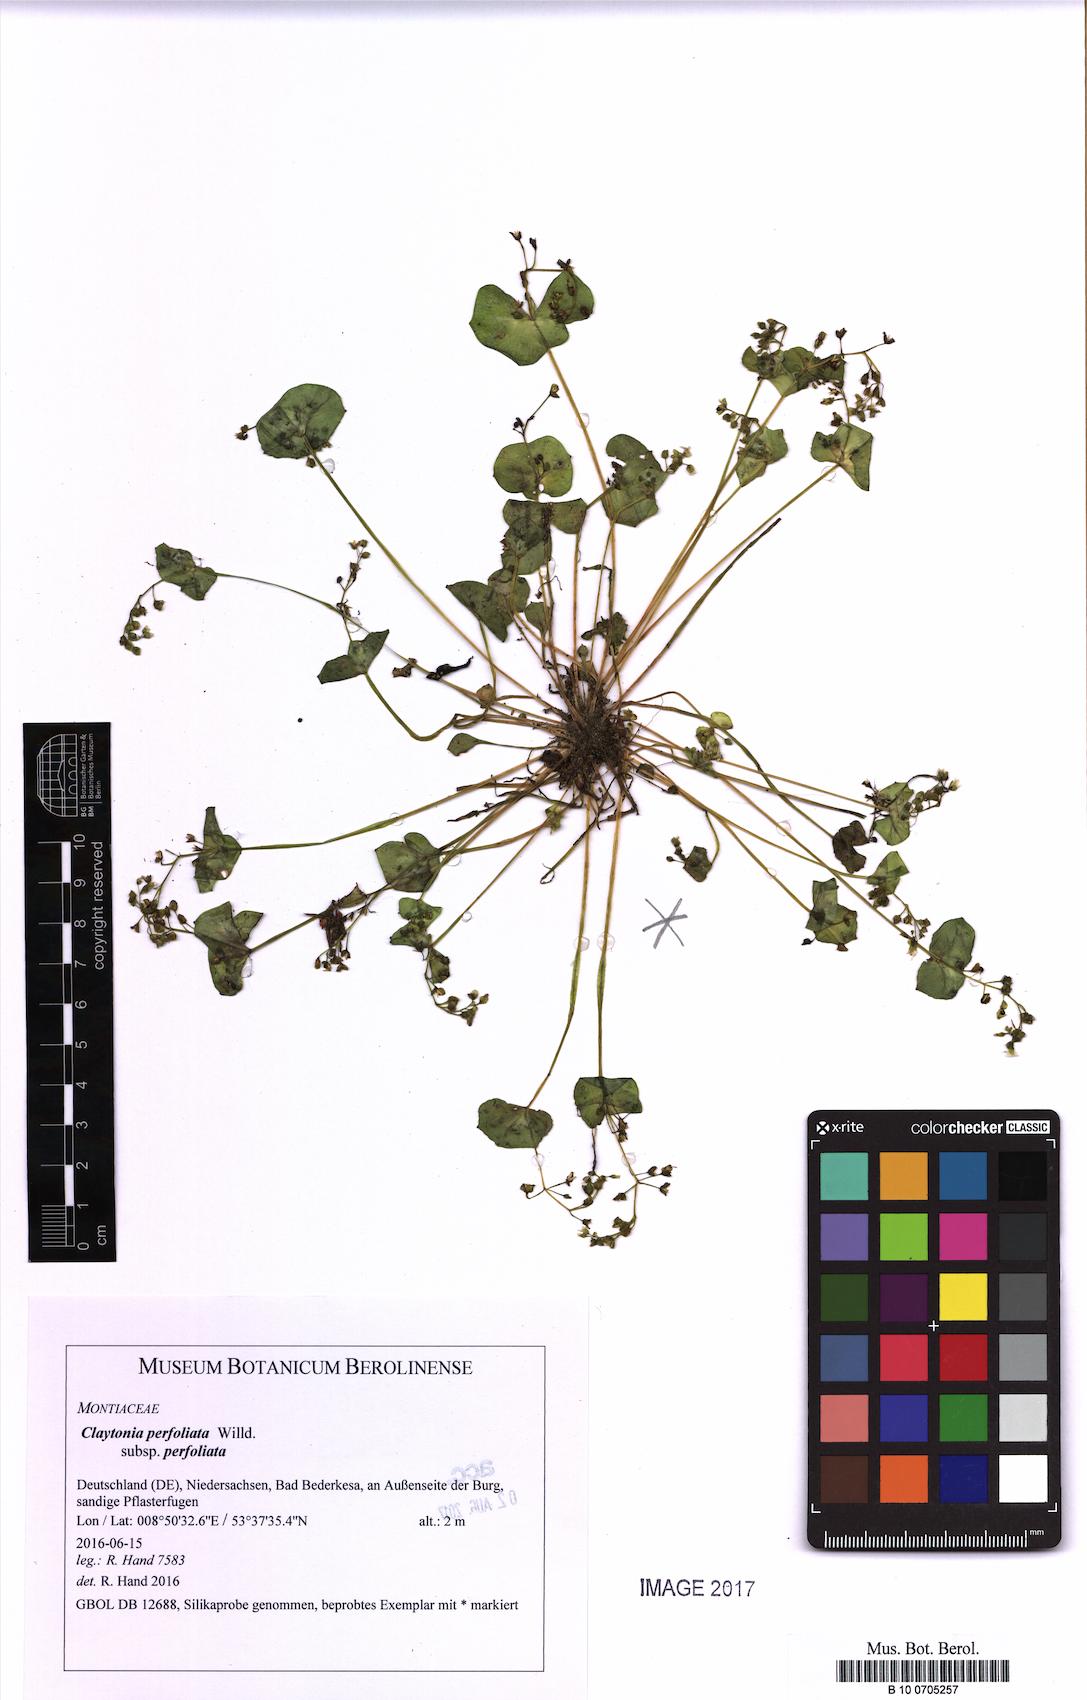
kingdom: Plantae
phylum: Tracheophyta
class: Magnoliopsida
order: Caryophyllales
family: Montiaceae
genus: Claytonia
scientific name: Claytonia perfoliata
